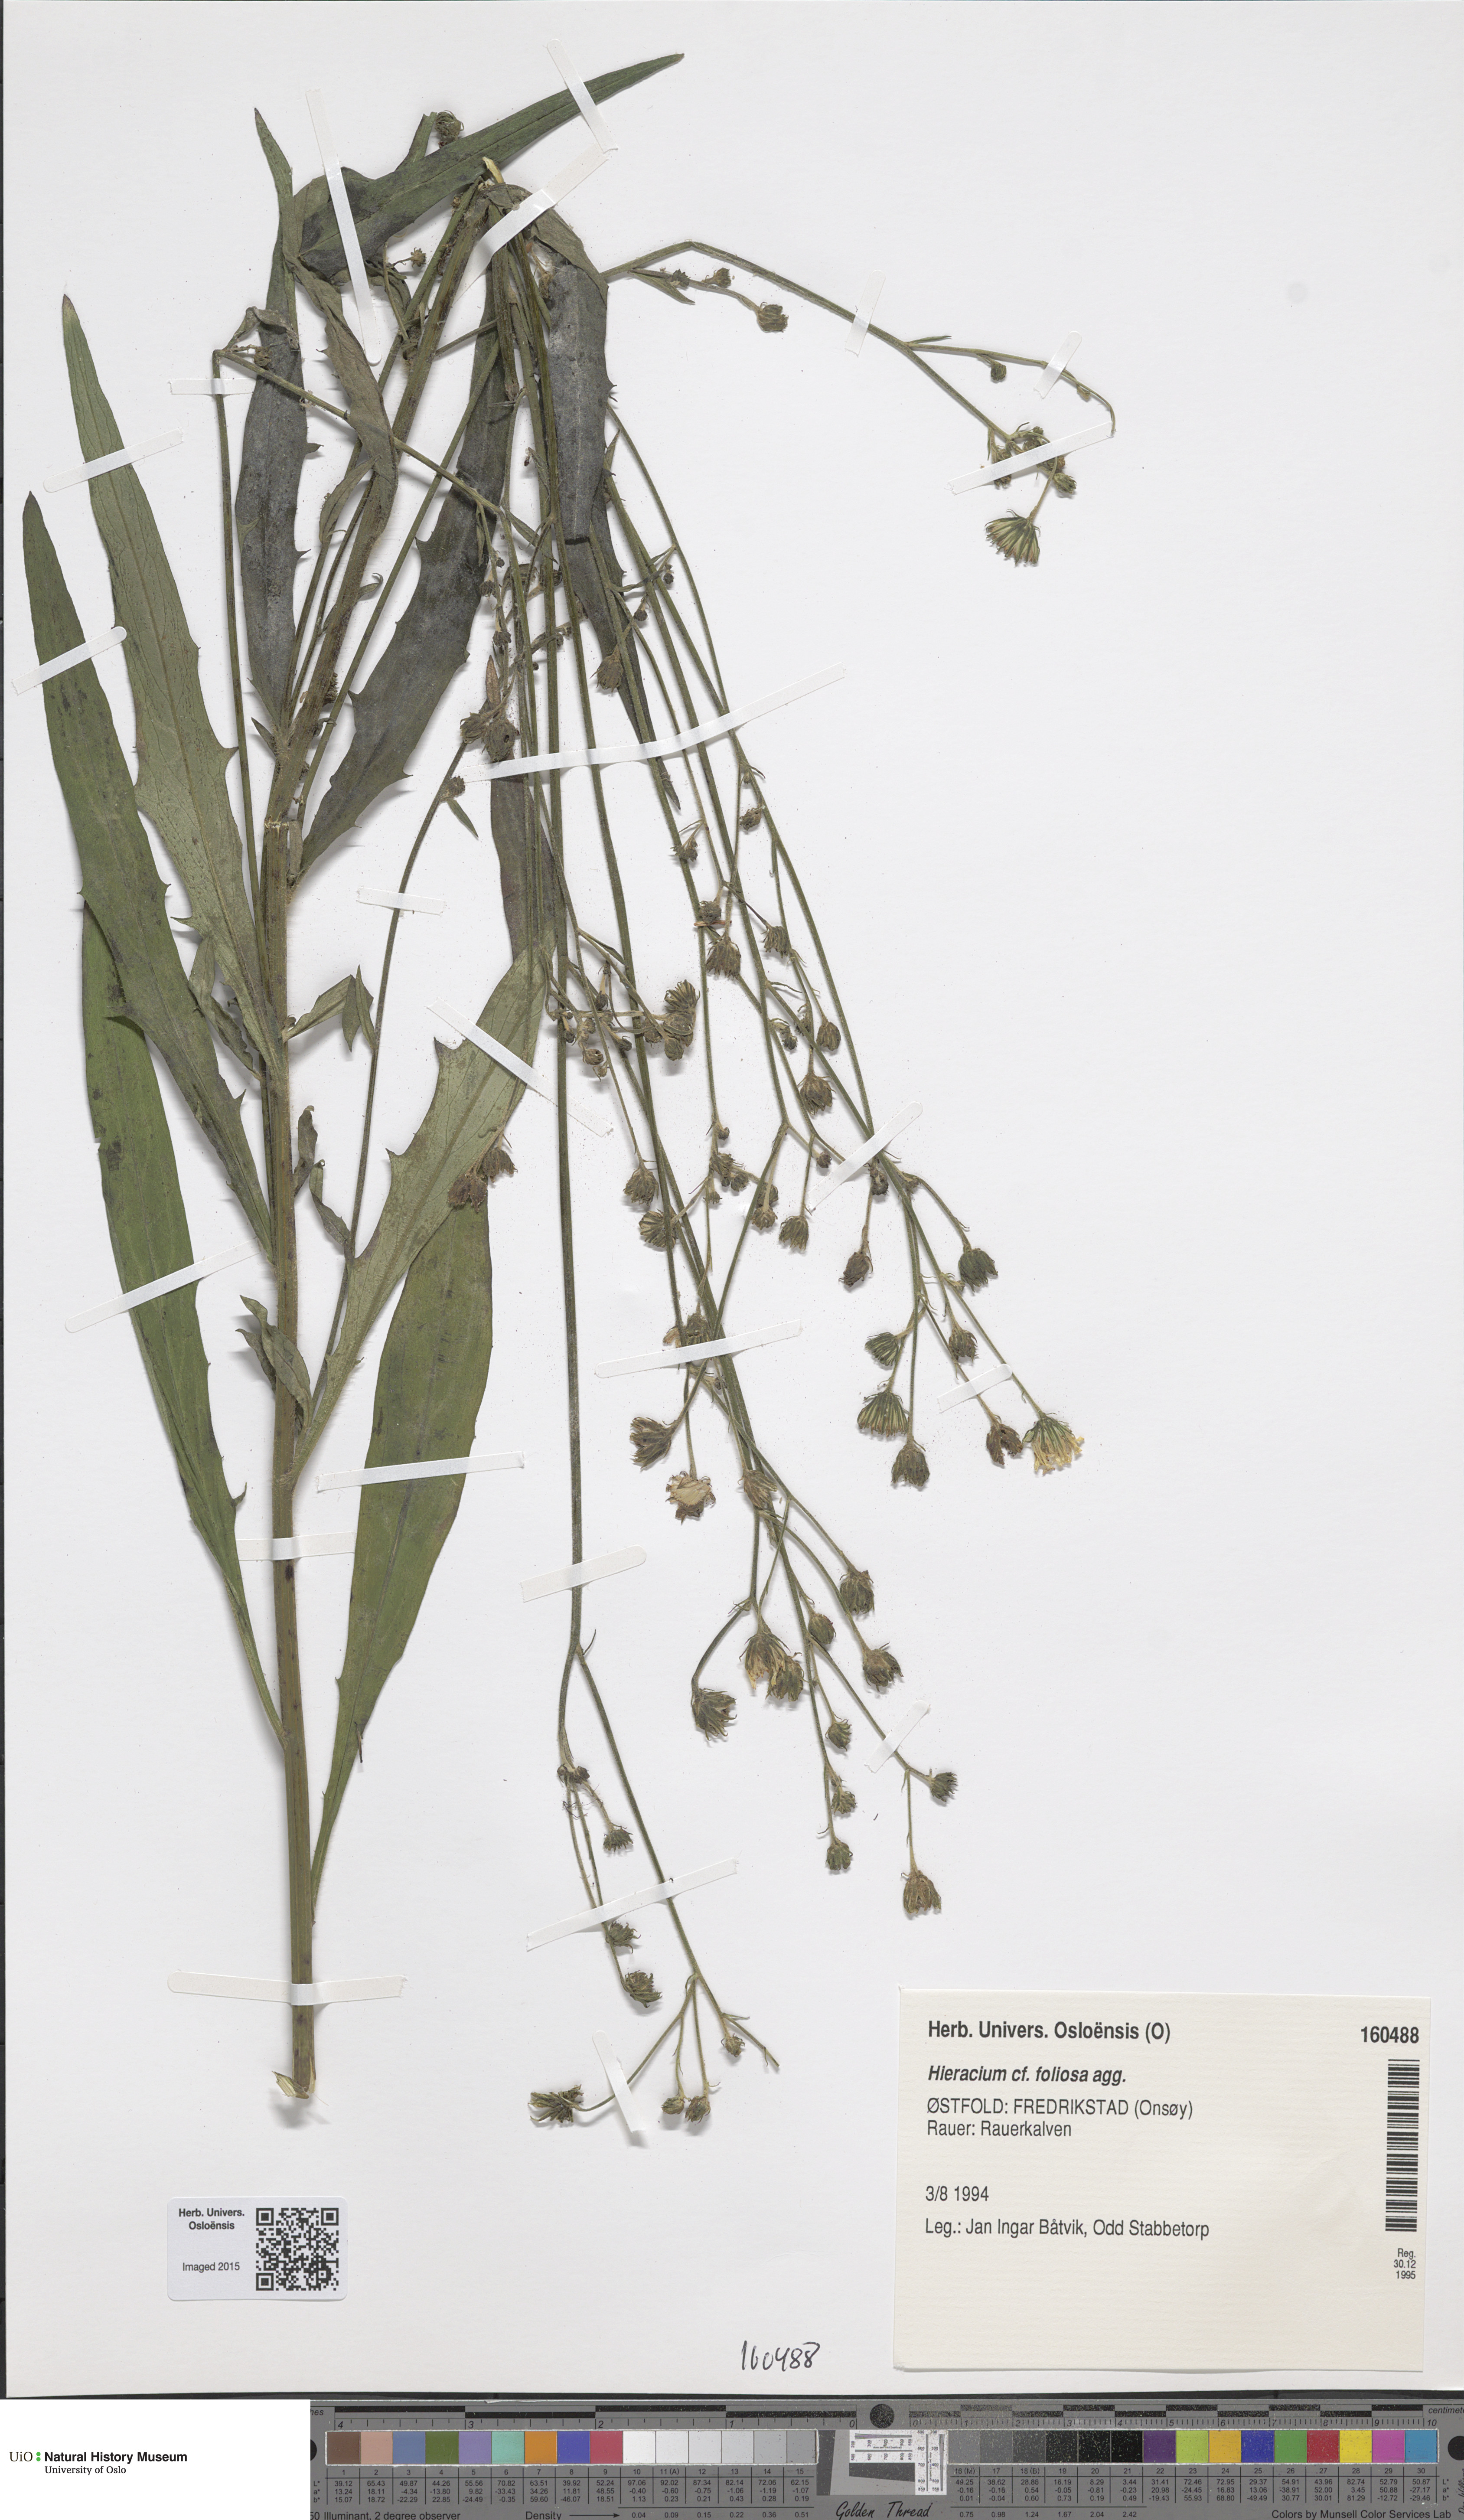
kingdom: Plantae
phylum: Tracheophyta
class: Magnoliopsida
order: Asterales
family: Asteraceae
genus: Hieracium
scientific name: Hieracium
